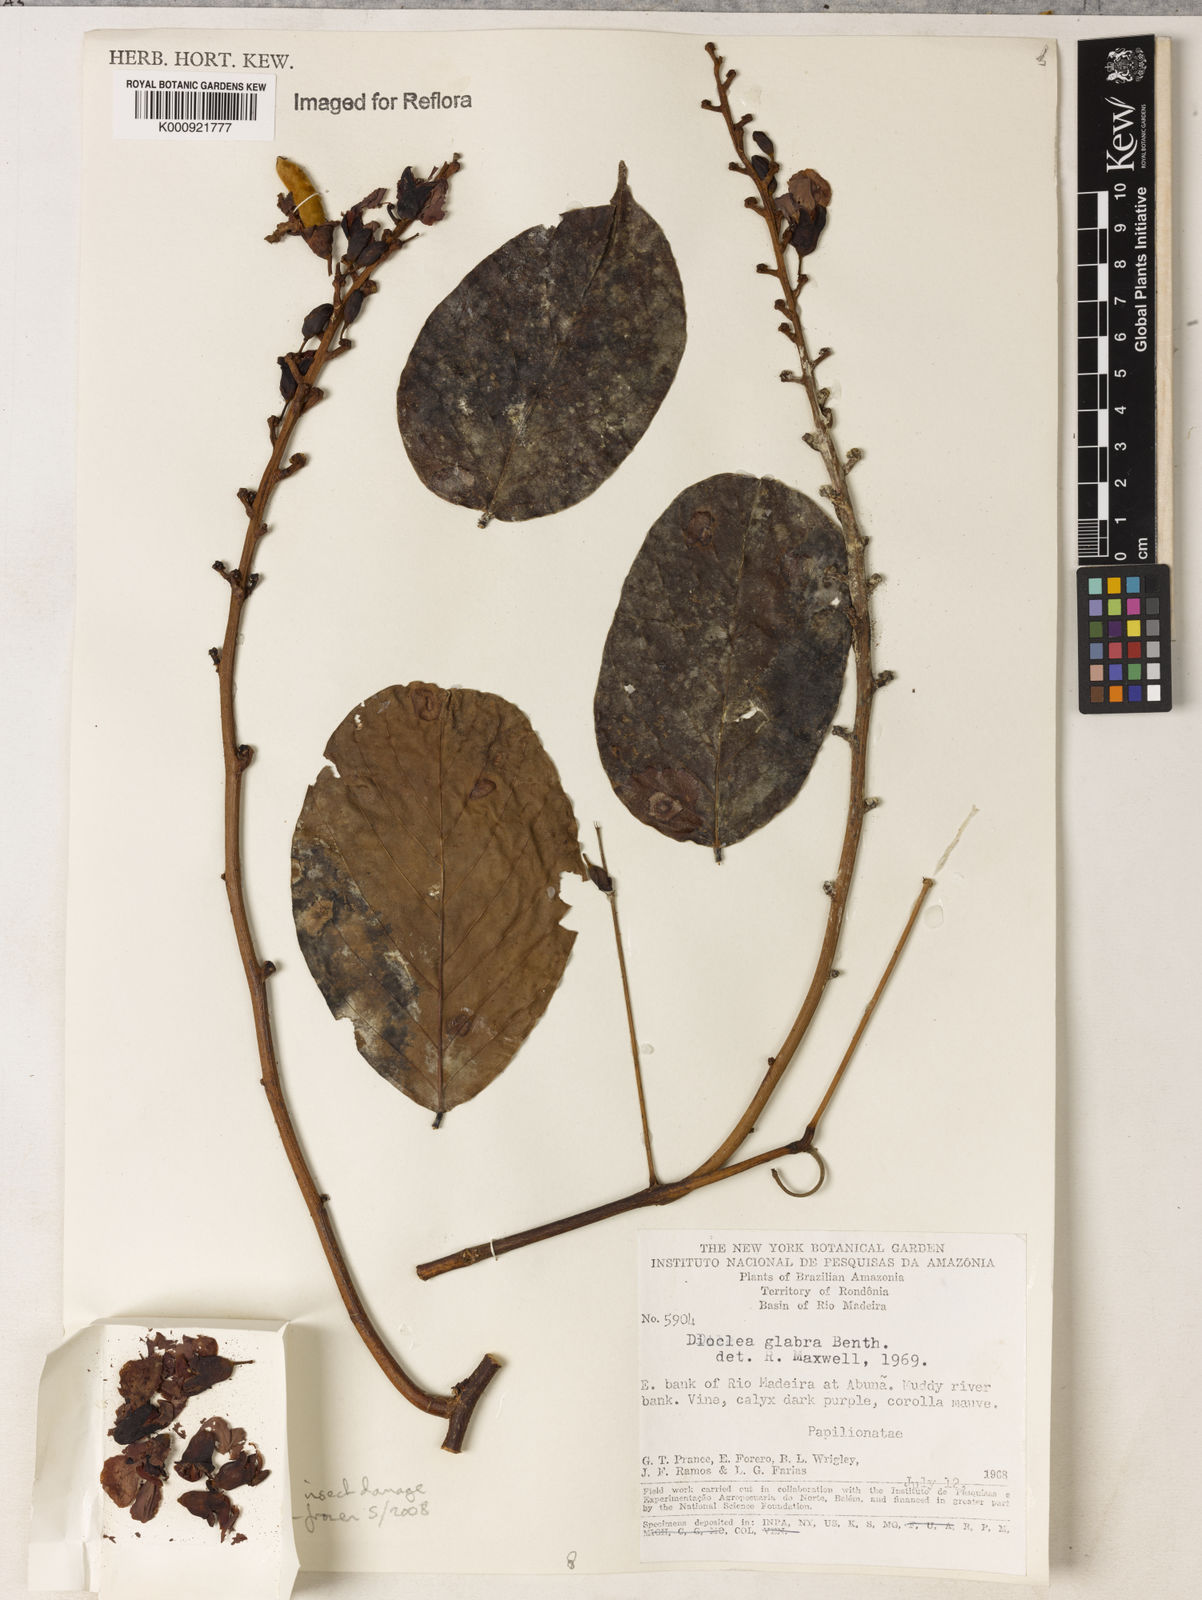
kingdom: Plantae
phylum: Tracheophyta
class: Magnoliopsida
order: Fabales
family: Fabaceae
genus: Macropsychanthus
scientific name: Macropsychanthus glaber
